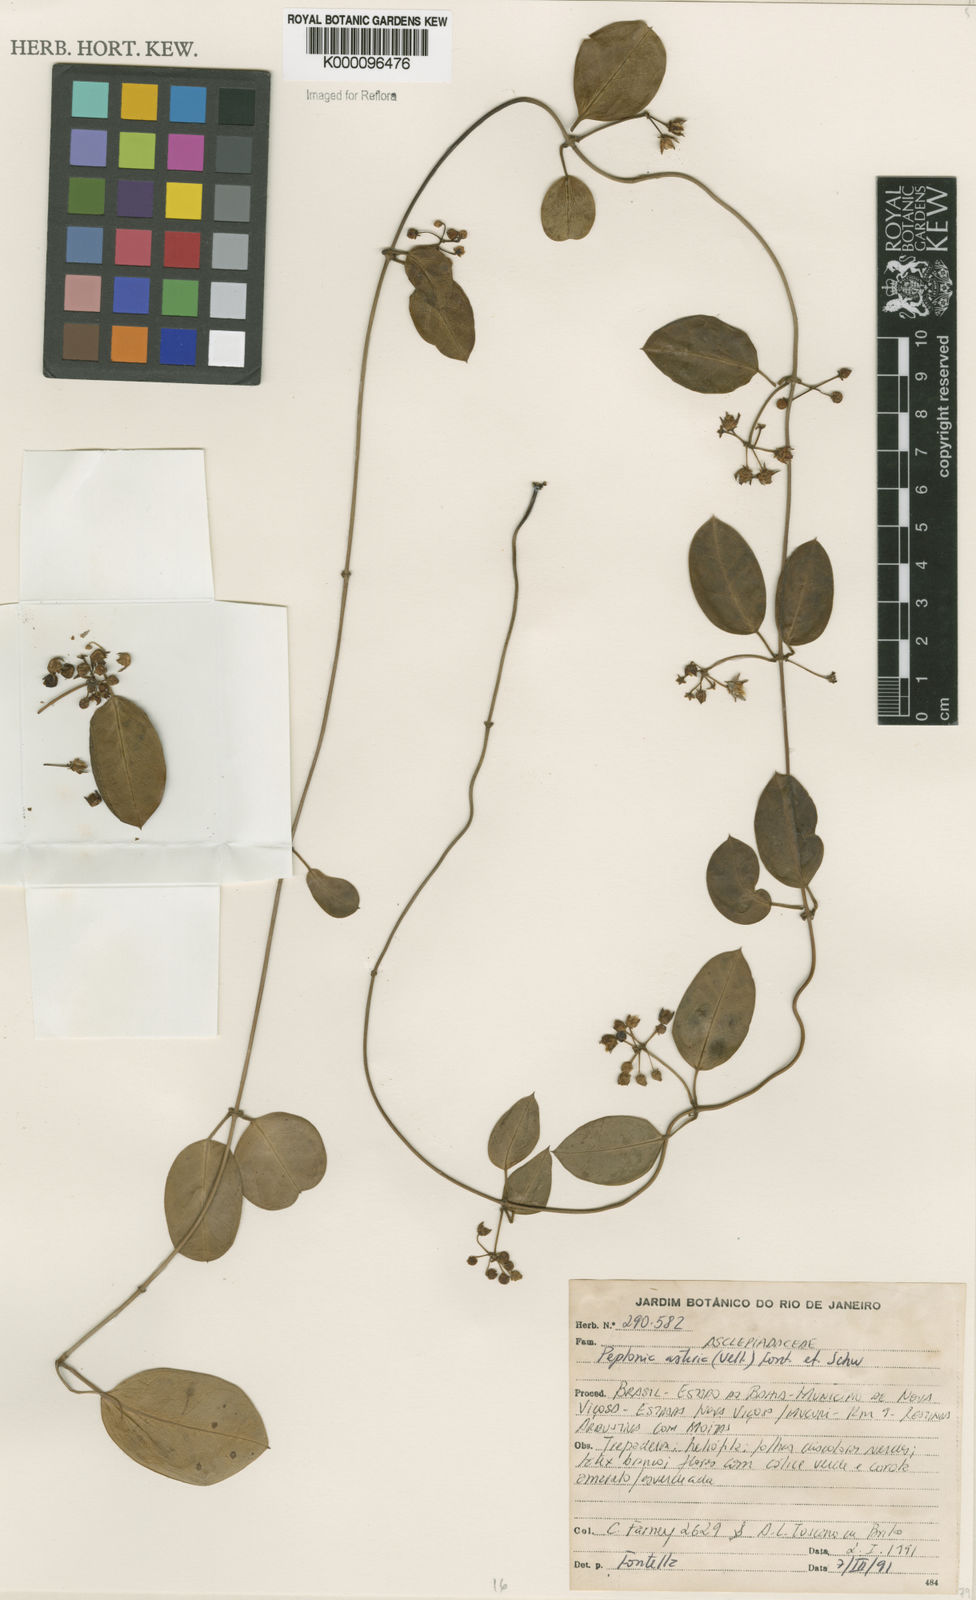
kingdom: Plantae
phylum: Tracheophyta
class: Magnoliopsida
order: Gentianales
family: Apocynaceae
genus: Peplonia
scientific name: Peplonia asteria
